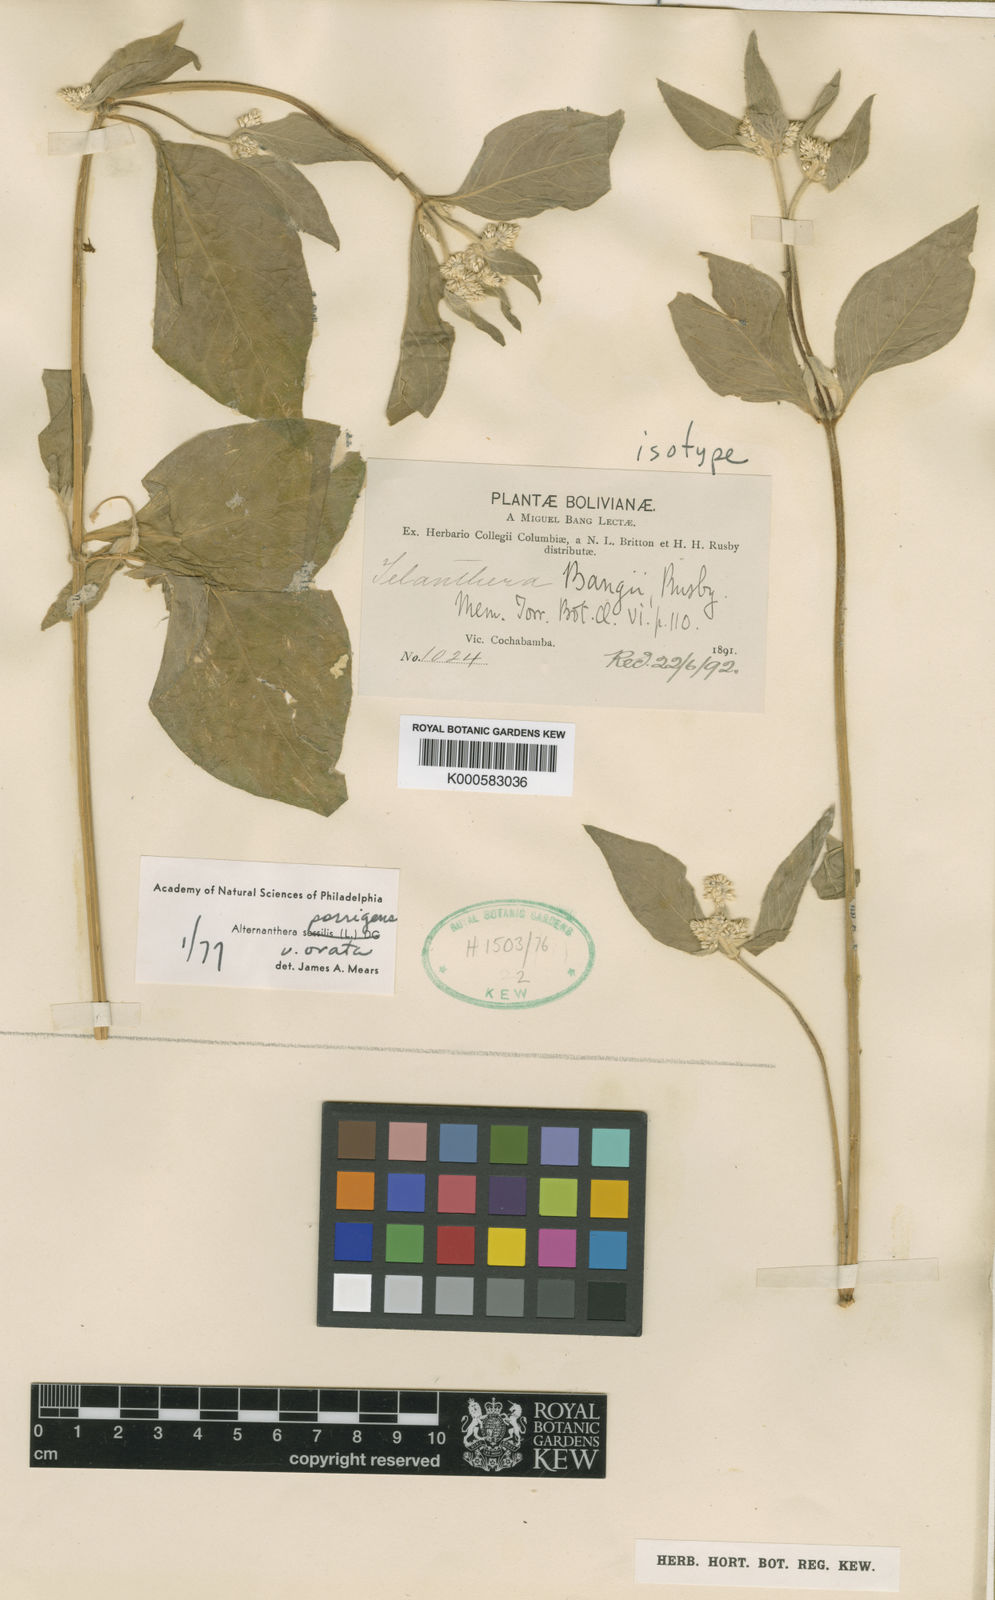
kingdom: Plantae
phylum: Tracheophyta
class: Magnoliopsida
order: Caryophyllales
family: Amaranthaceae
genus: Alternanthera
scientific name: Alternanthera porrigens
